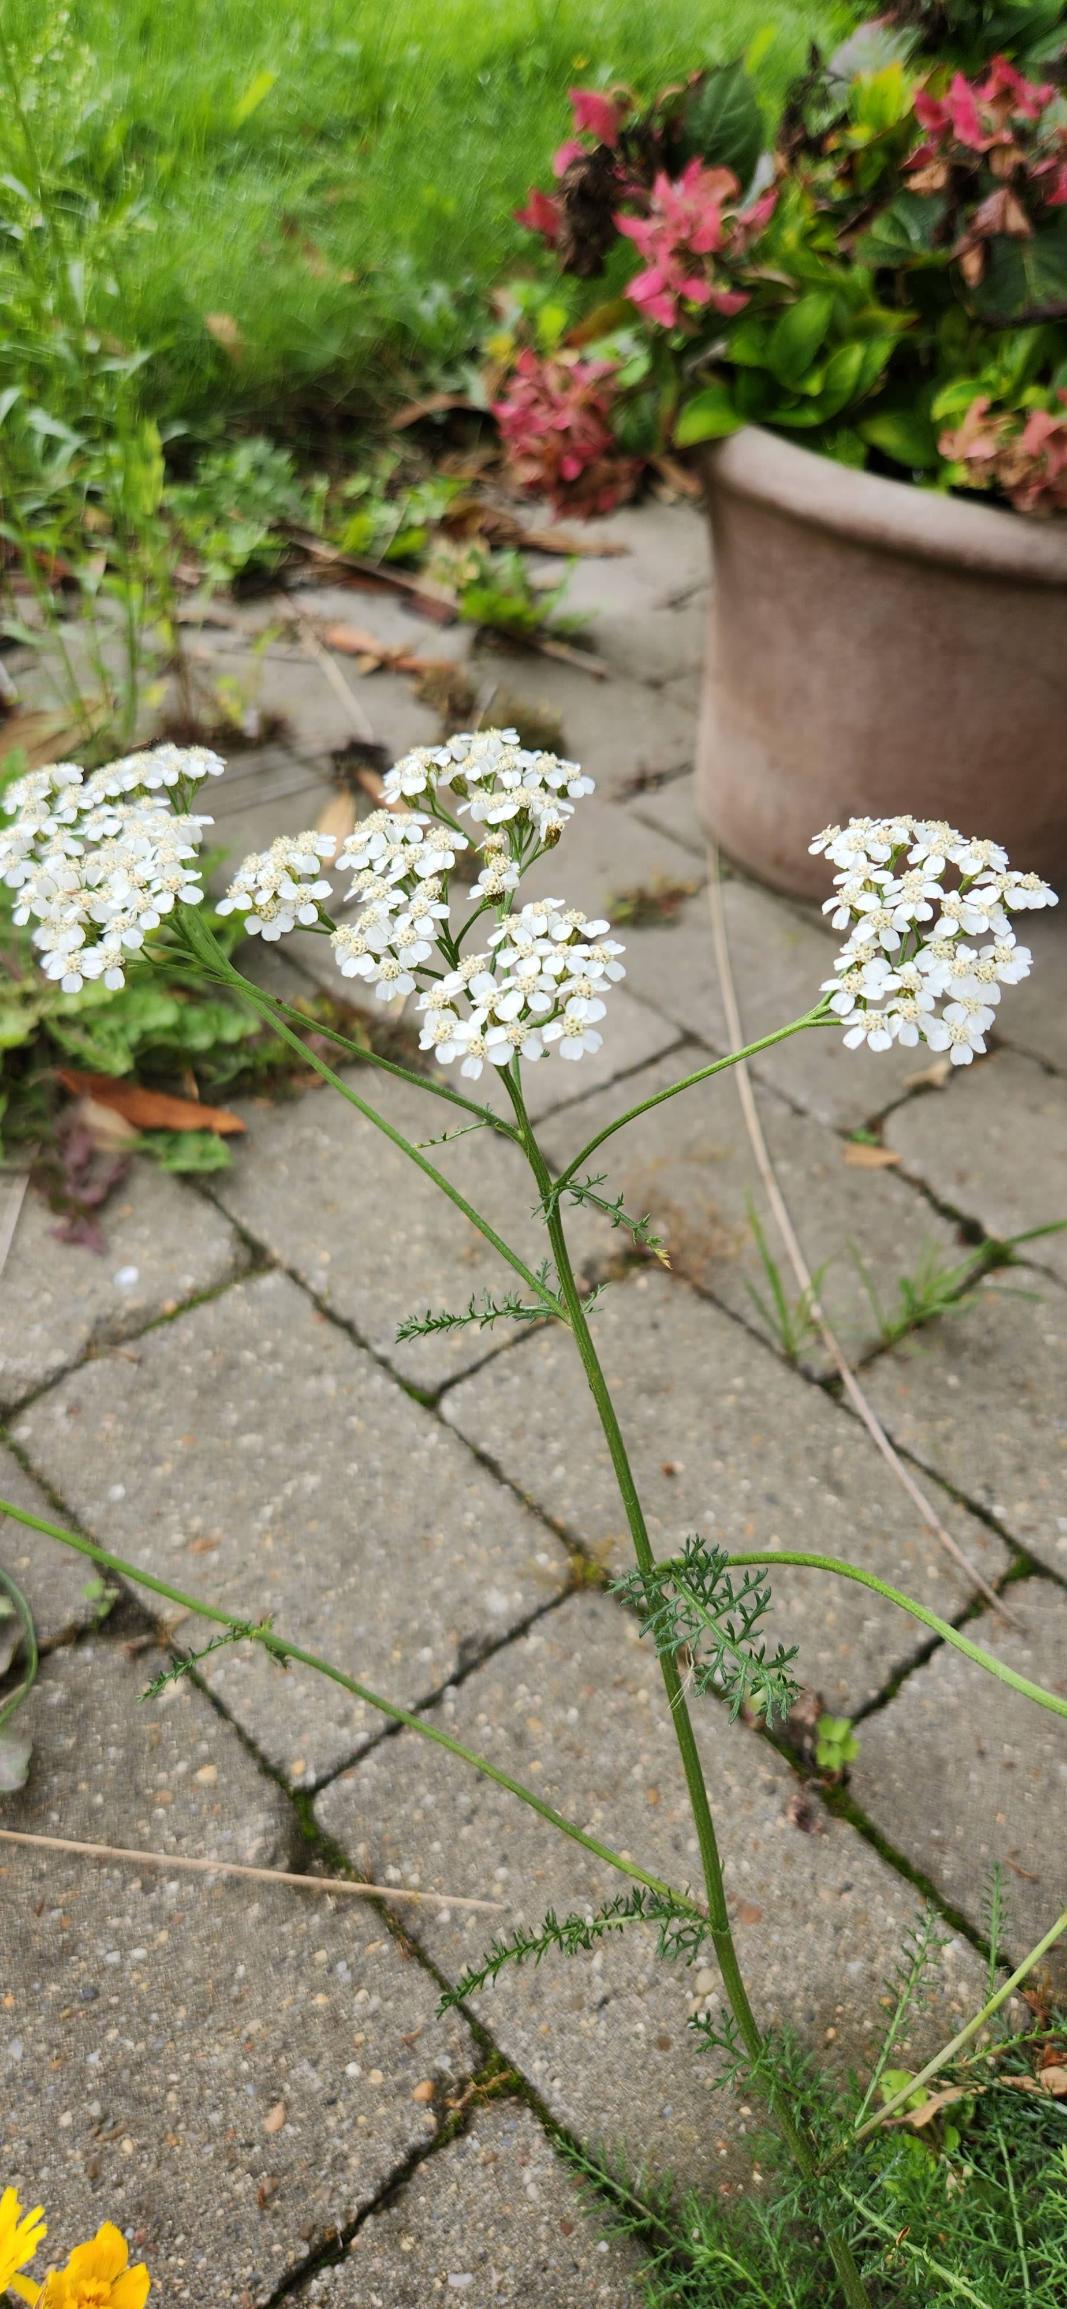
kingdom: Plantae
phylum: Tracheophyta
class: Magnoliopsida
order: Asterales
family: Asteraceae
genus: Achillea
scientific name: Achillea millefolium
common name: Almindelig røllike
